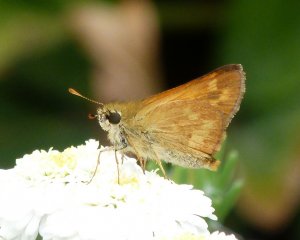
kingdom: Animalia
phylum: Arthropoda
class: Insecta
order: Lepidoptera
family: Hesperiidae
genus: Ochlodes
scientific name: Ochlodes sylvanoides
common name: Woodland Skipper
